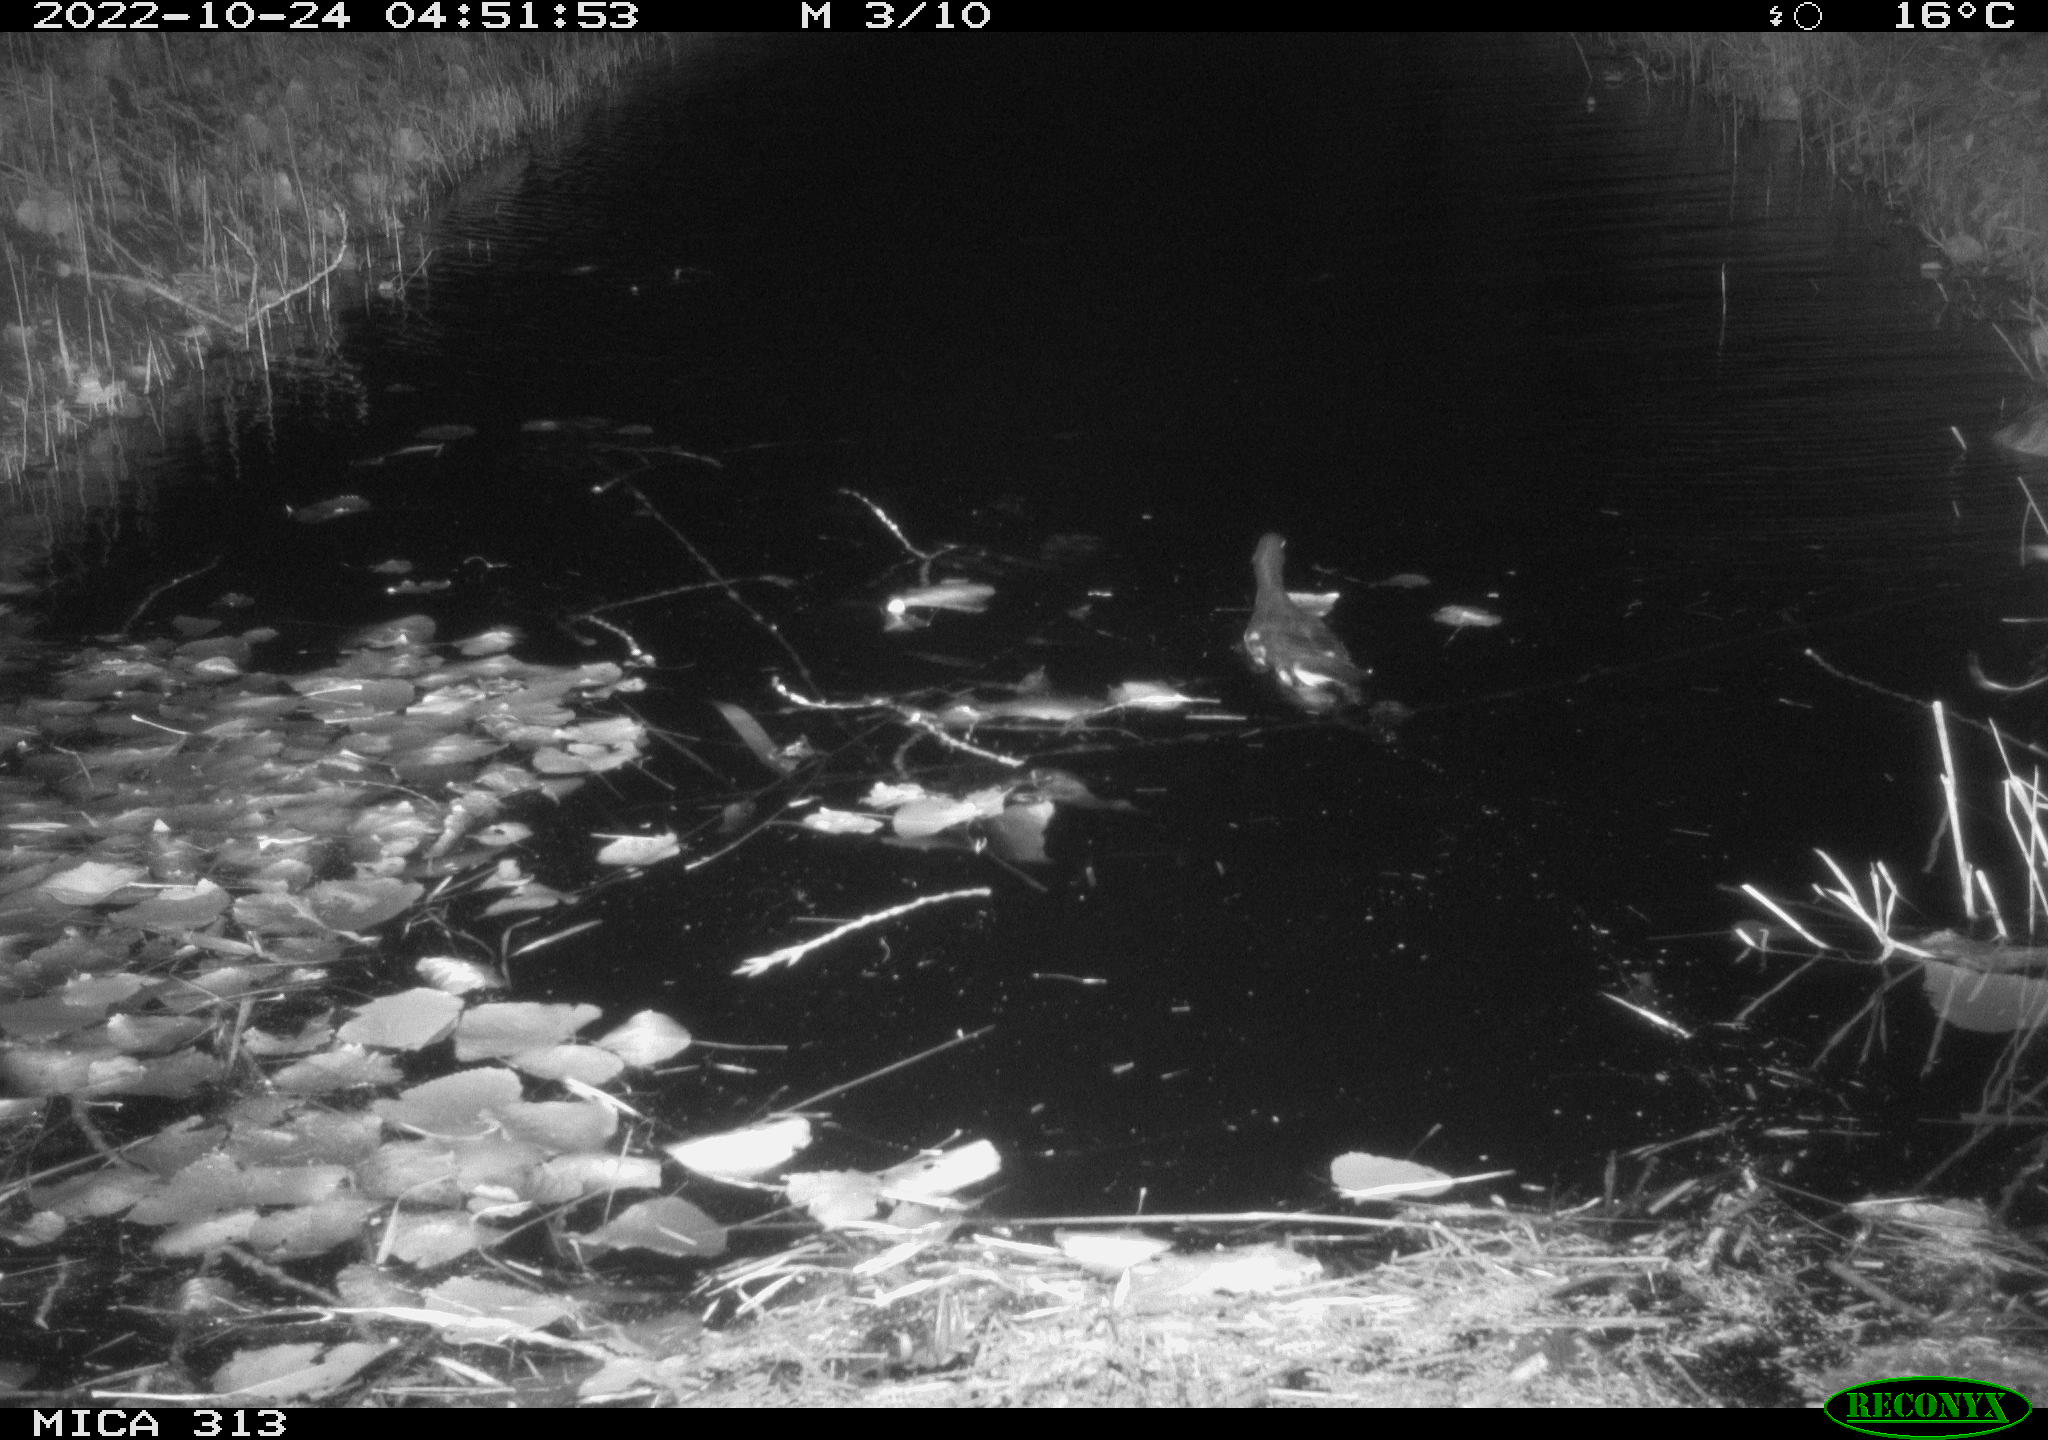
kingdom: Animalia
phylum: Chordata
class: Aves
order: Gruiformes
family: Rallidae
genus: Gallinula
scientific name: Gallinula chloropus
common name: Common moorhen
